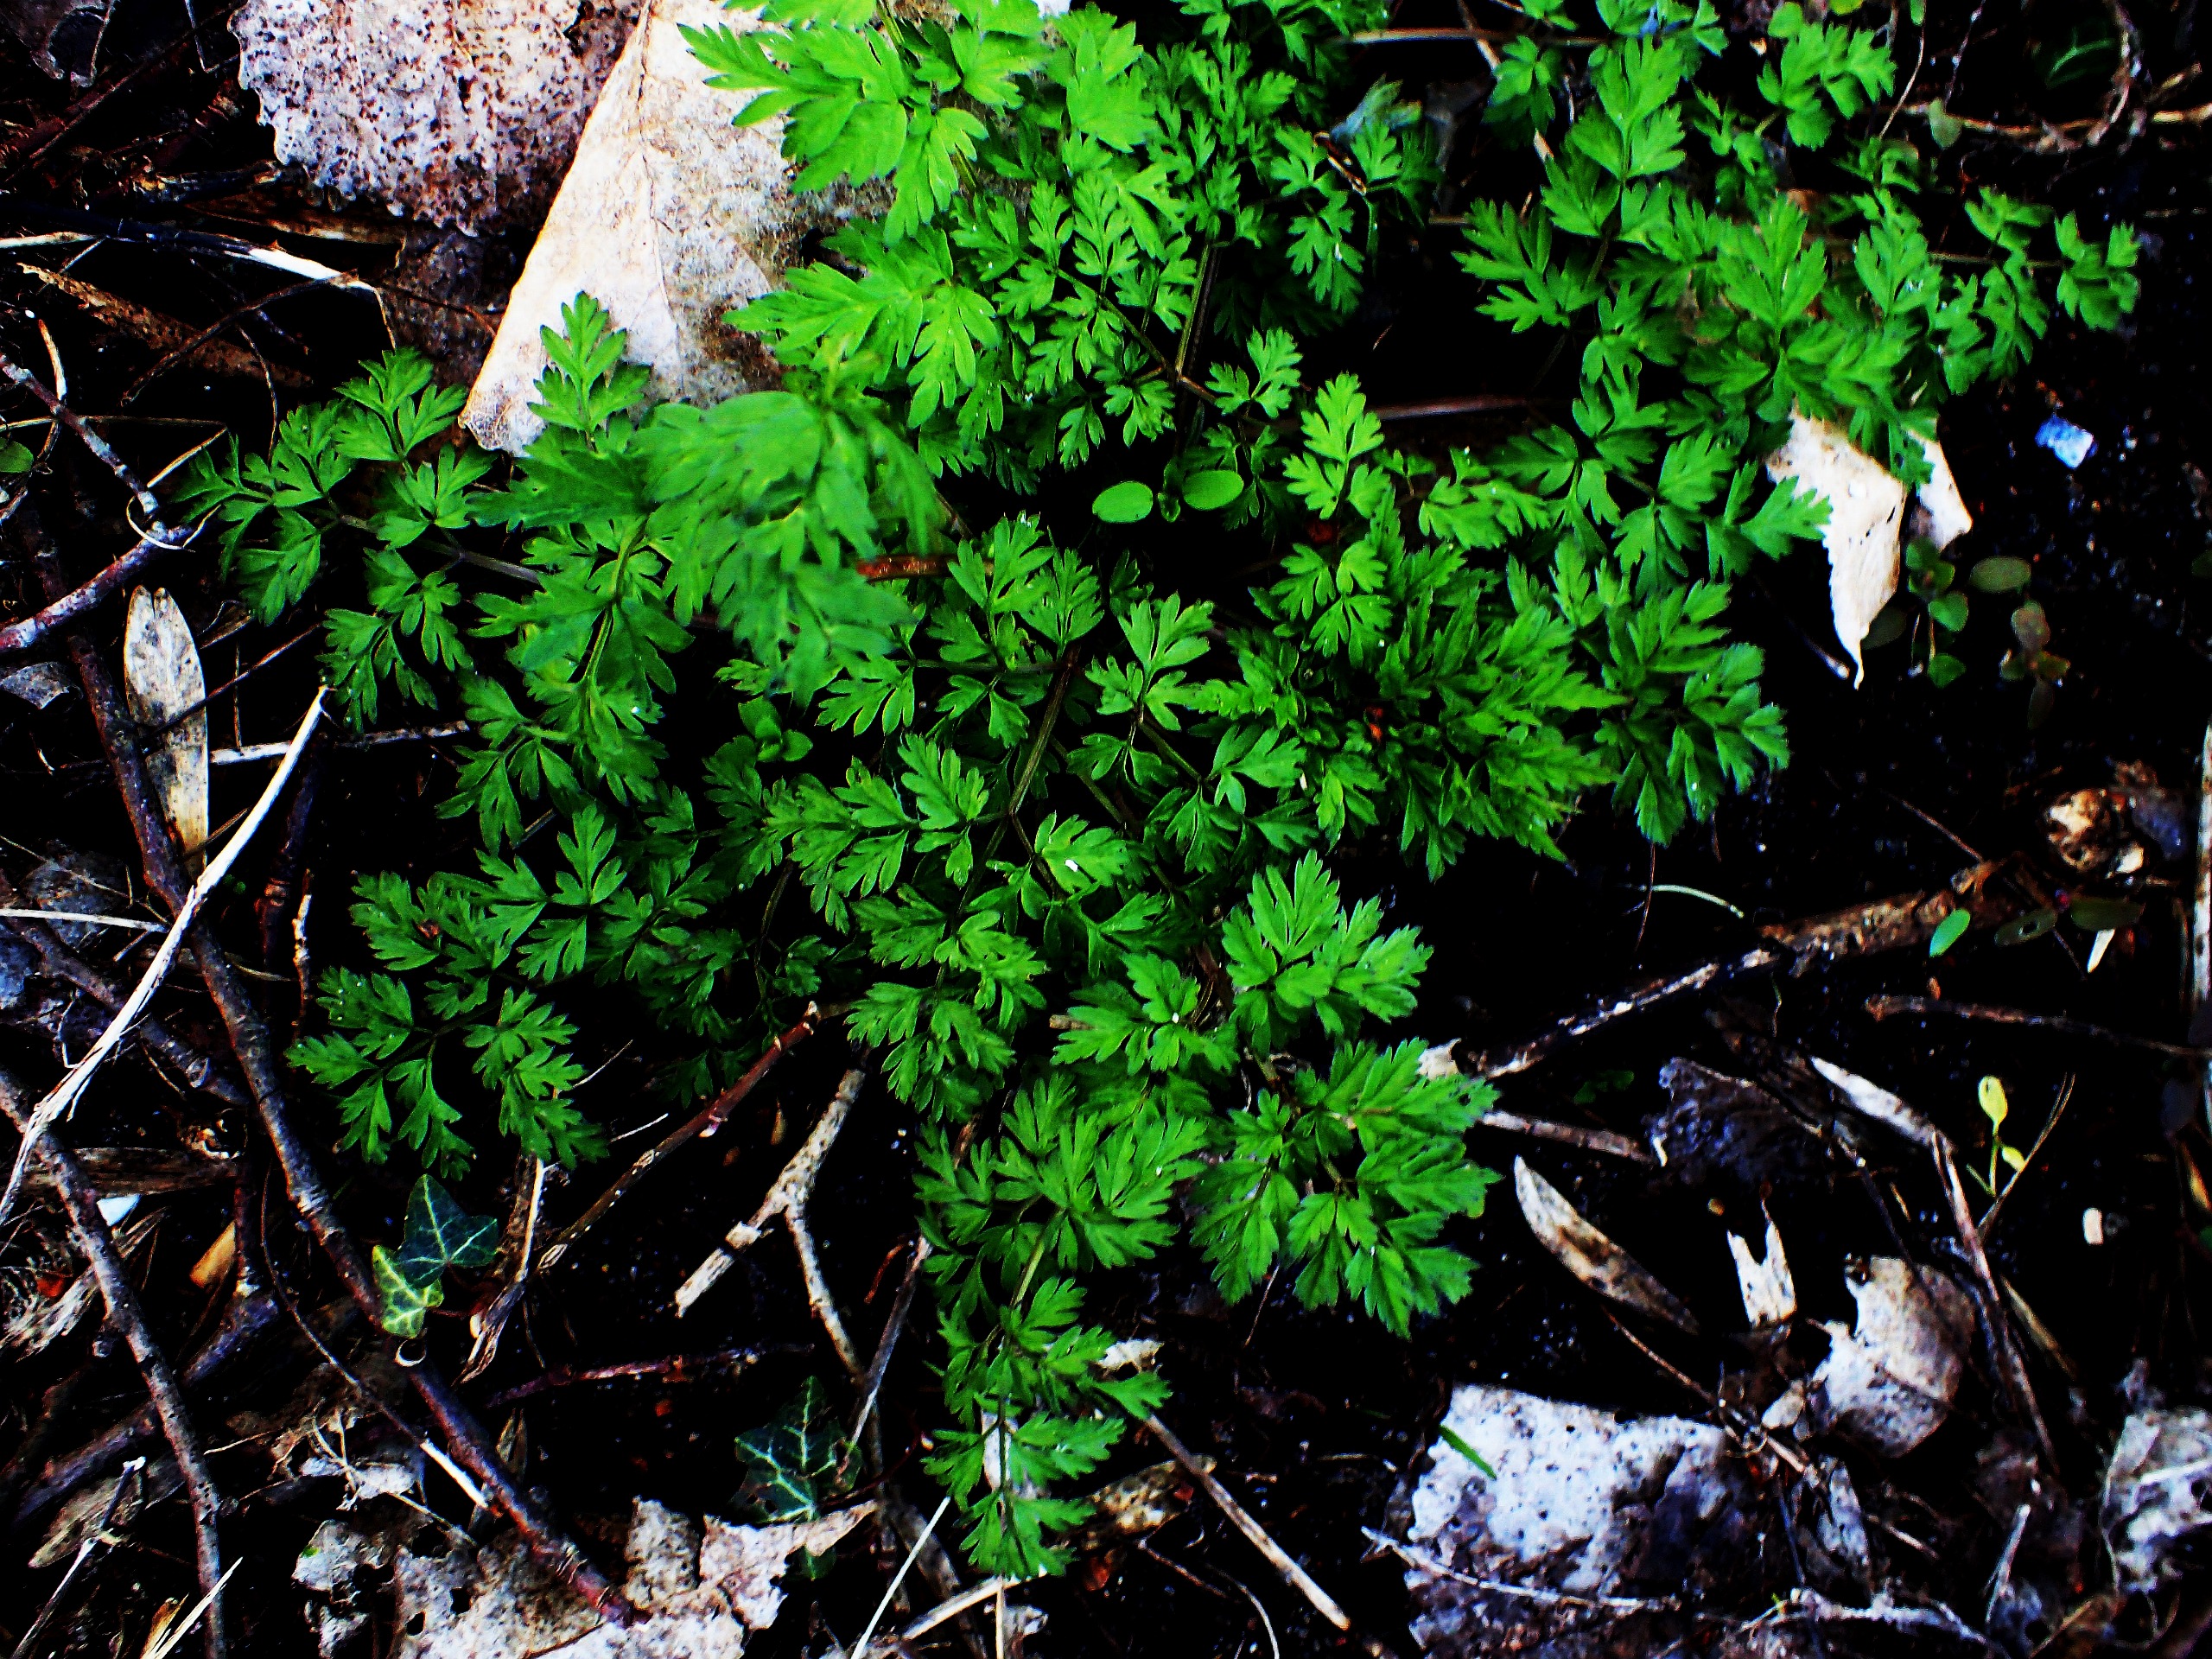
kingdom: Plantae
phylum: Tracheophyta
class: Magnoliopsida
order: Apiales
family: Apiaceae
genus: Anthriscus
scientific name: Anthriscus sylvestris
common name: Vild kørvel
